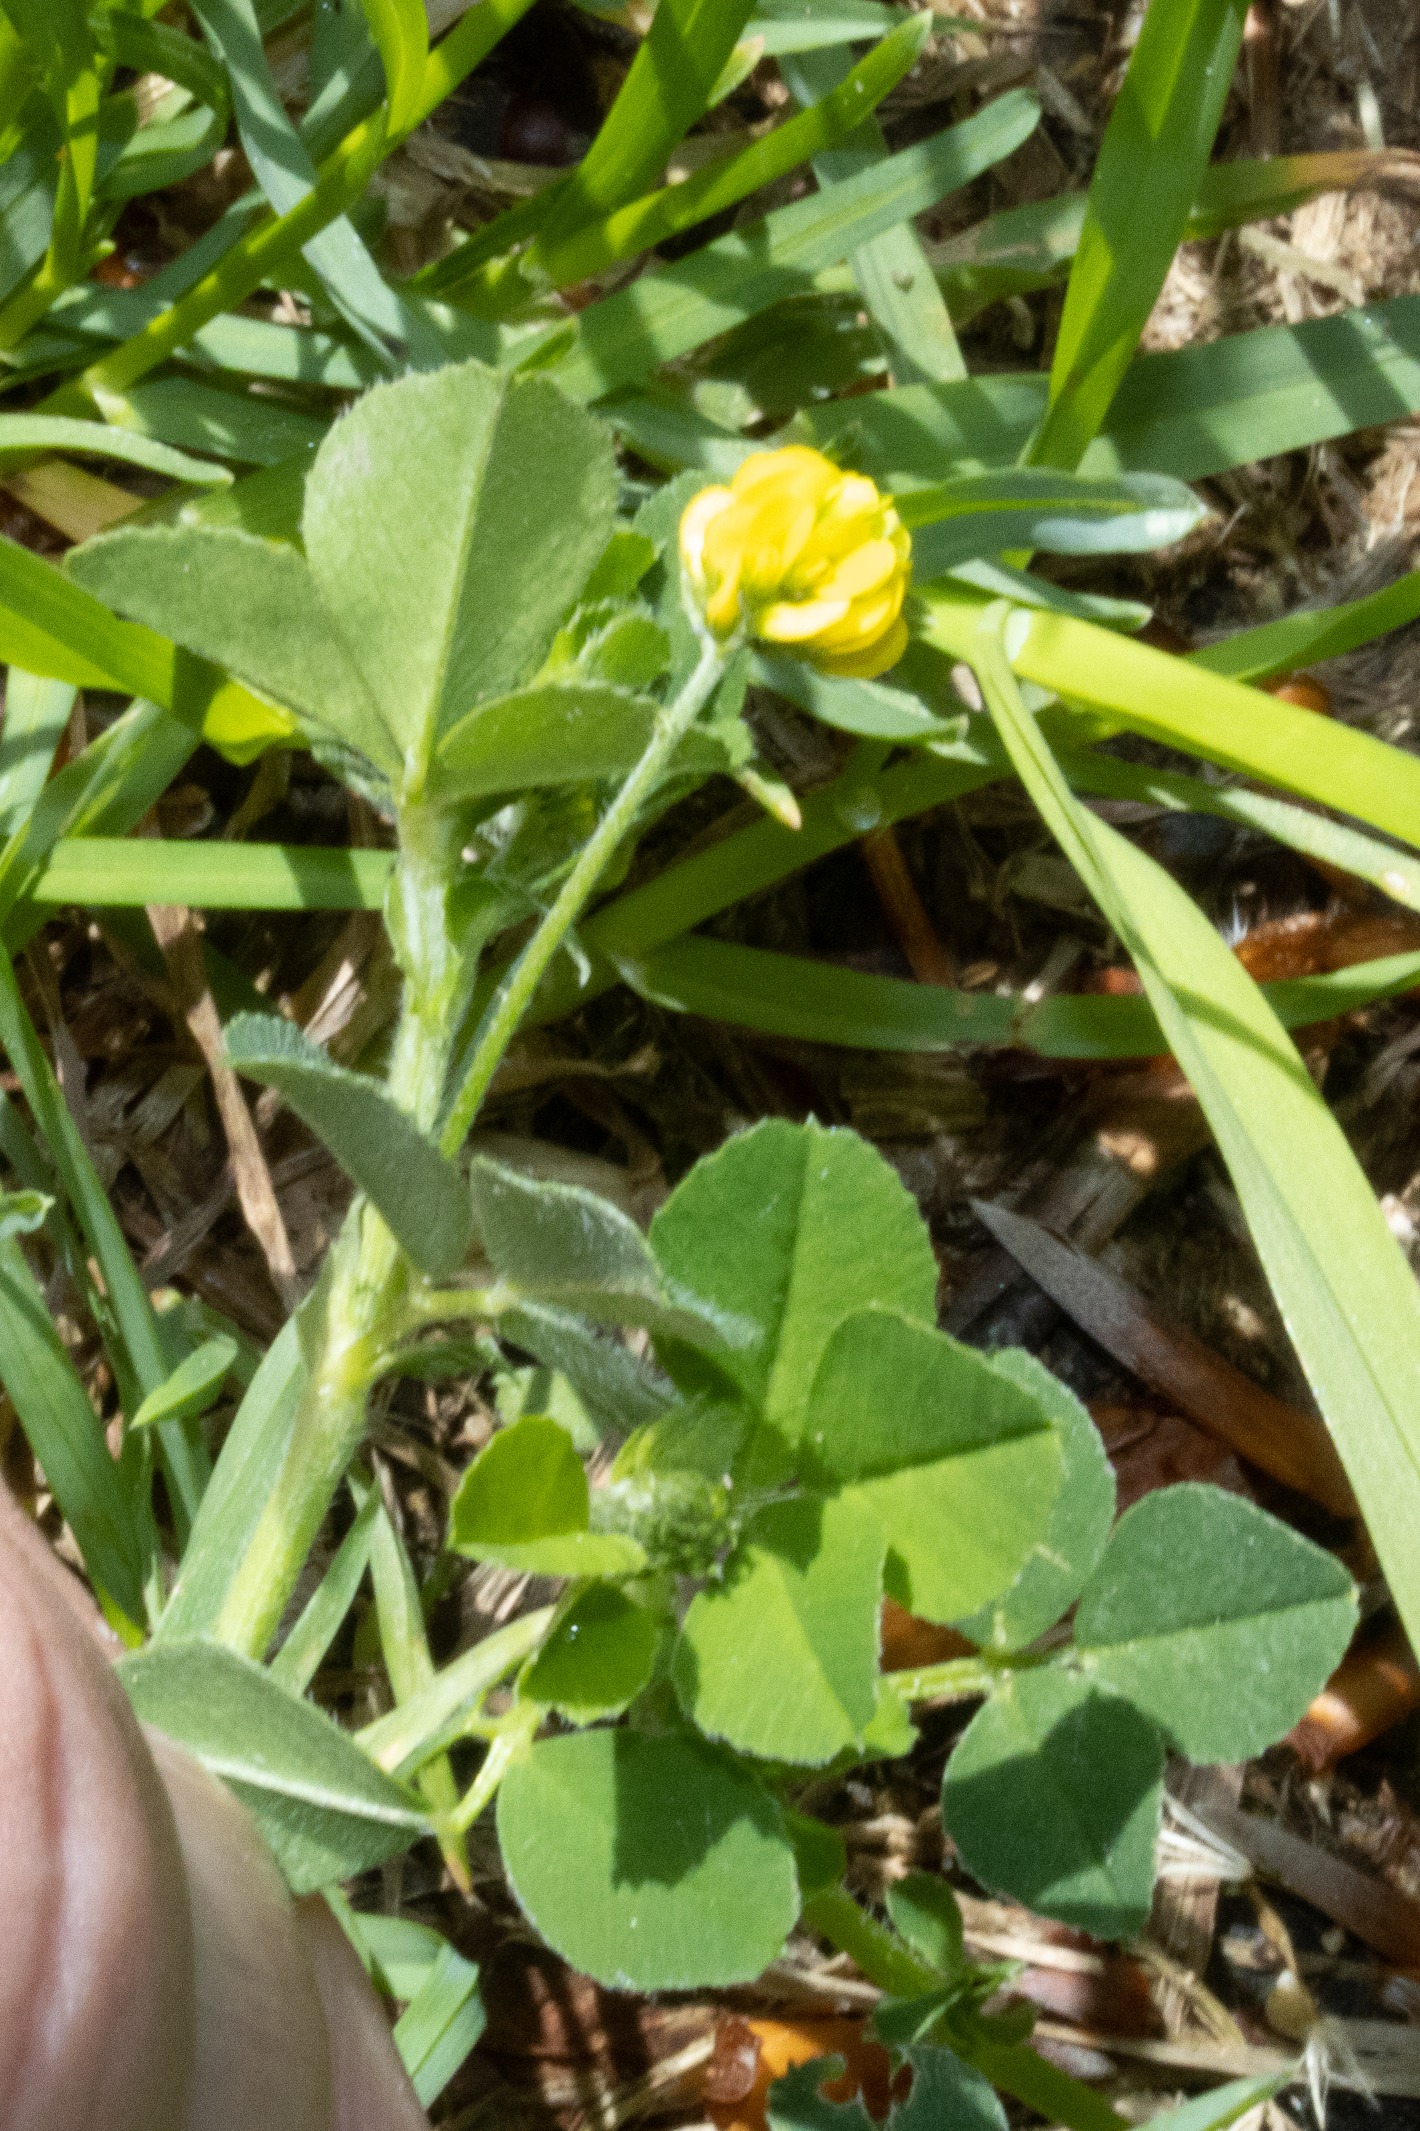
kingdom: Plantae
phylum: Tracheophyta
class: Magnoliopsida
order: Fabales
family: Fabaceae
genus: Medicago
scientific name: Medicago lupulina
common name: Humle-sneglebælg
